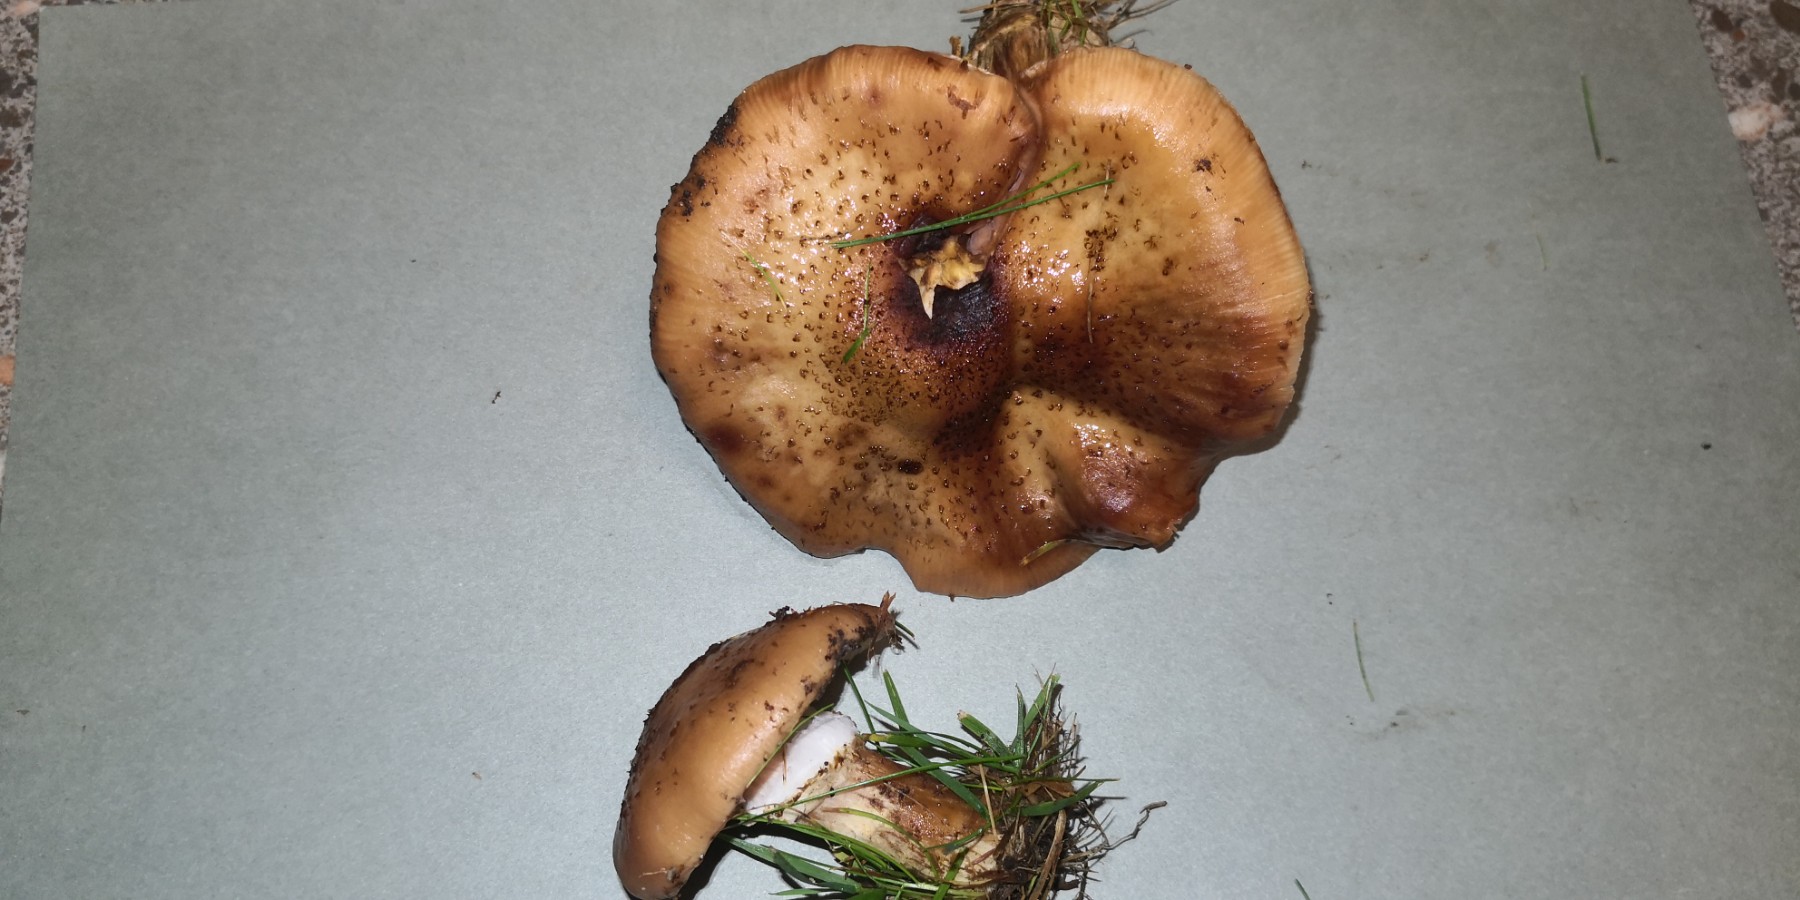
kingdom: Fungi
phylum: Basidiomycota
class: Agaricomycetes
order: Agaricales
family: Physalacriaceae
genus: Armillaria
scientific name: Armillaria lutea
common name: køllestokket honningsvamp
